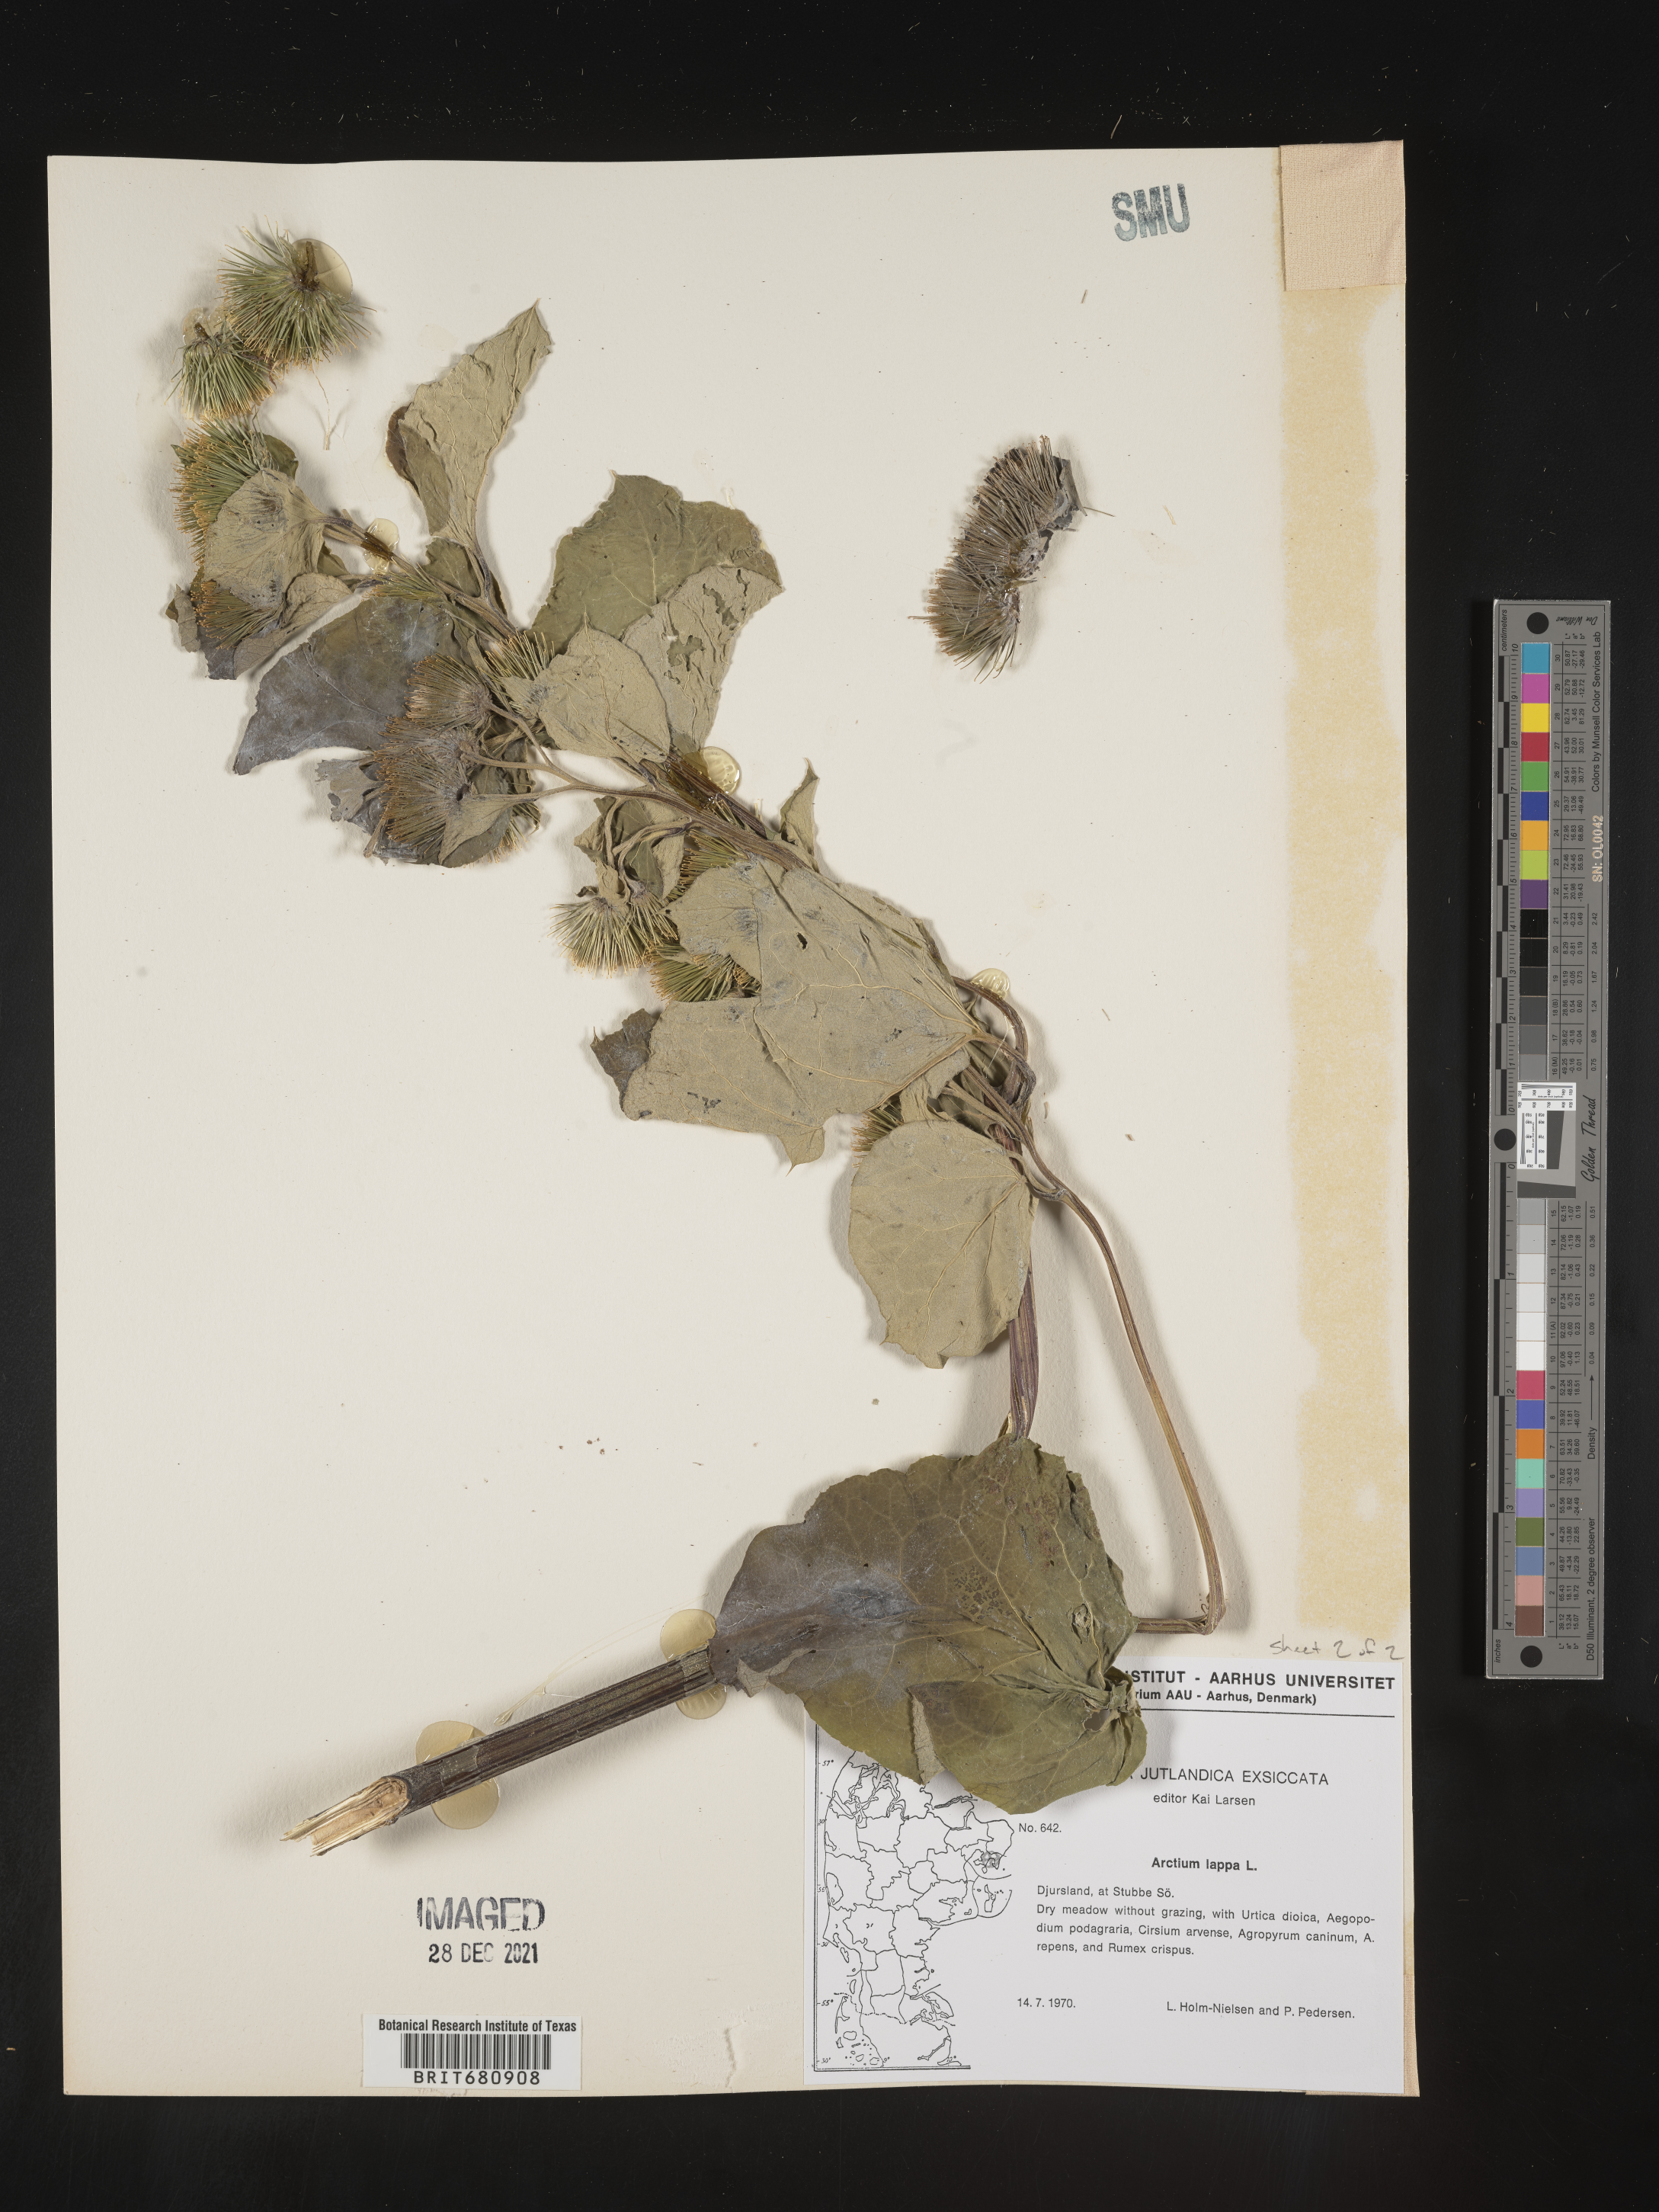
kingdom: Plantae
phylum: Tracheophyta
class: Magnoliopsida
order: Asterales
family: Asteraceae
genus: Arctium
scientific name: Arctium lappa
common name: Greater burdock
